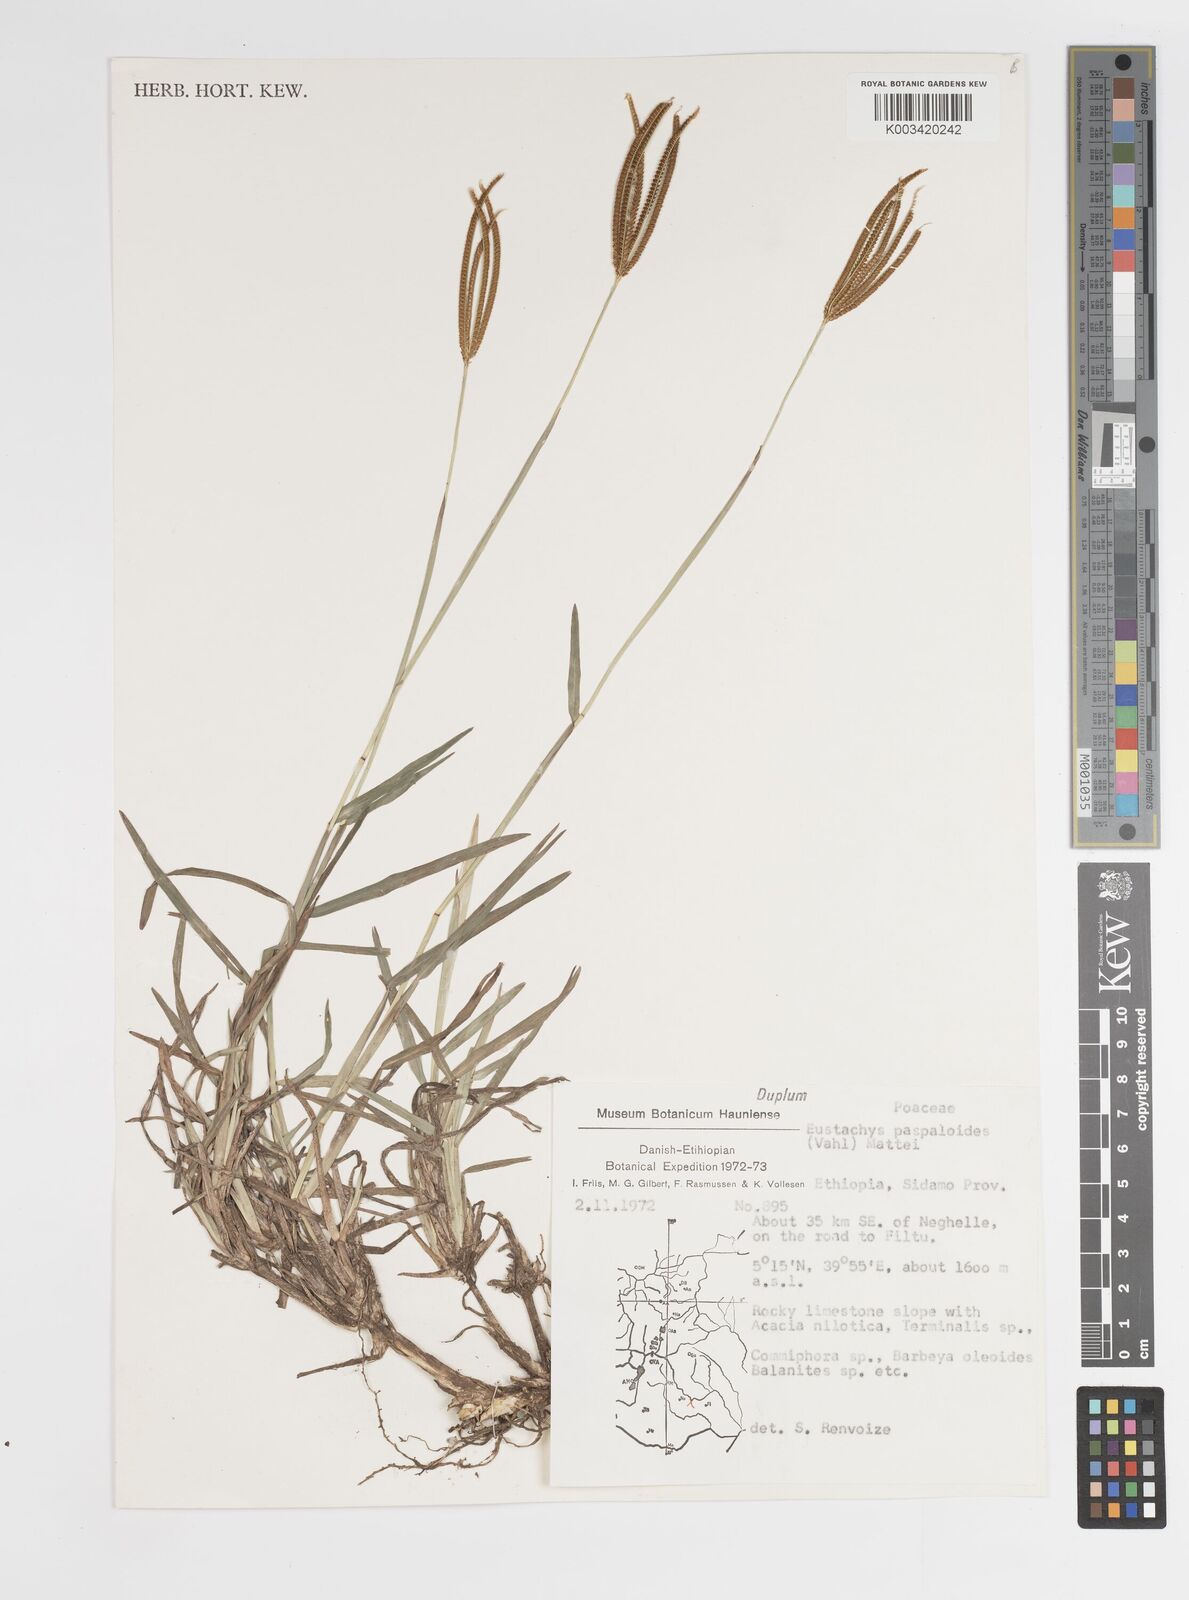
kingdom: Plantae
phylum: Tracheophyta
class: Liliopsida
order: Poales
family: Poaceae
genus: Eustachys
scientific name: Eustachys paspaloides
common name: Caribbean fingergrass
